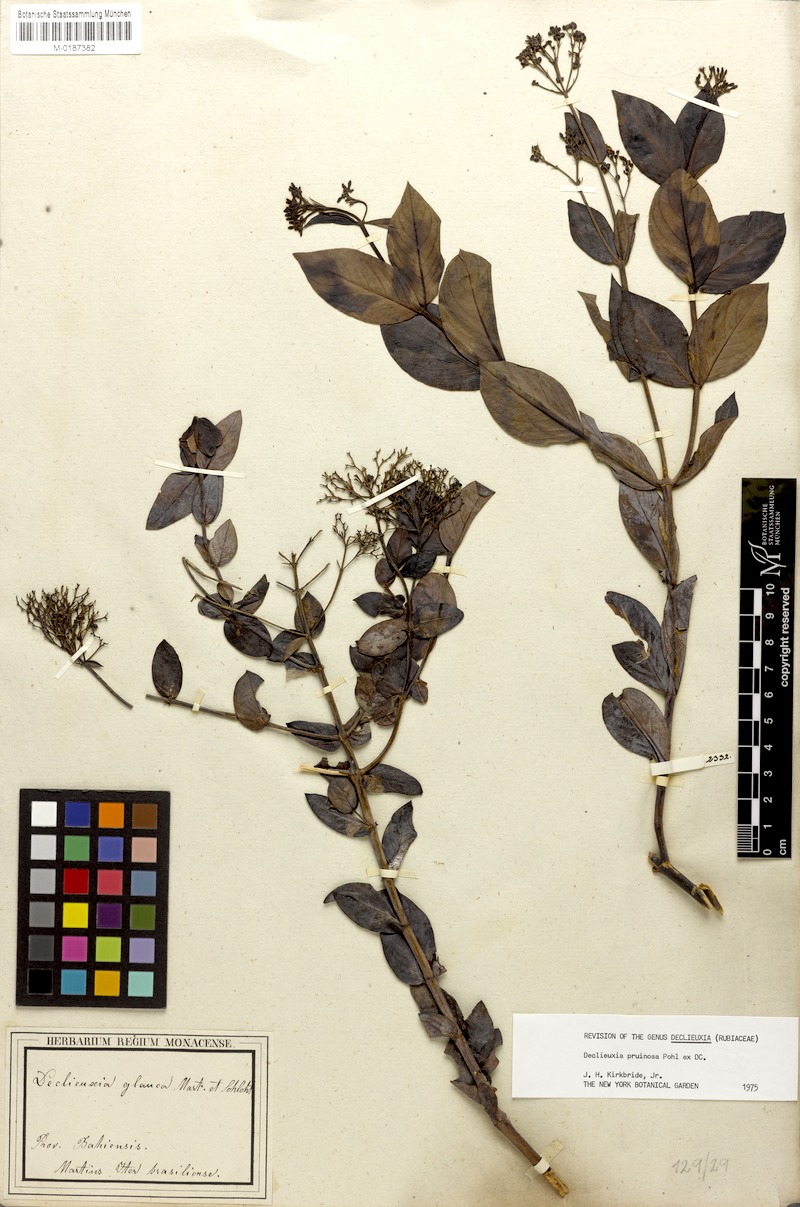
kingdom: Plantae
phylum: Tracheophyta
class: Magnoliopsida
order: Gentianales
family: Rubiaceae
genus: Declieuxia
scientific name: Declieuxia pruinosa
